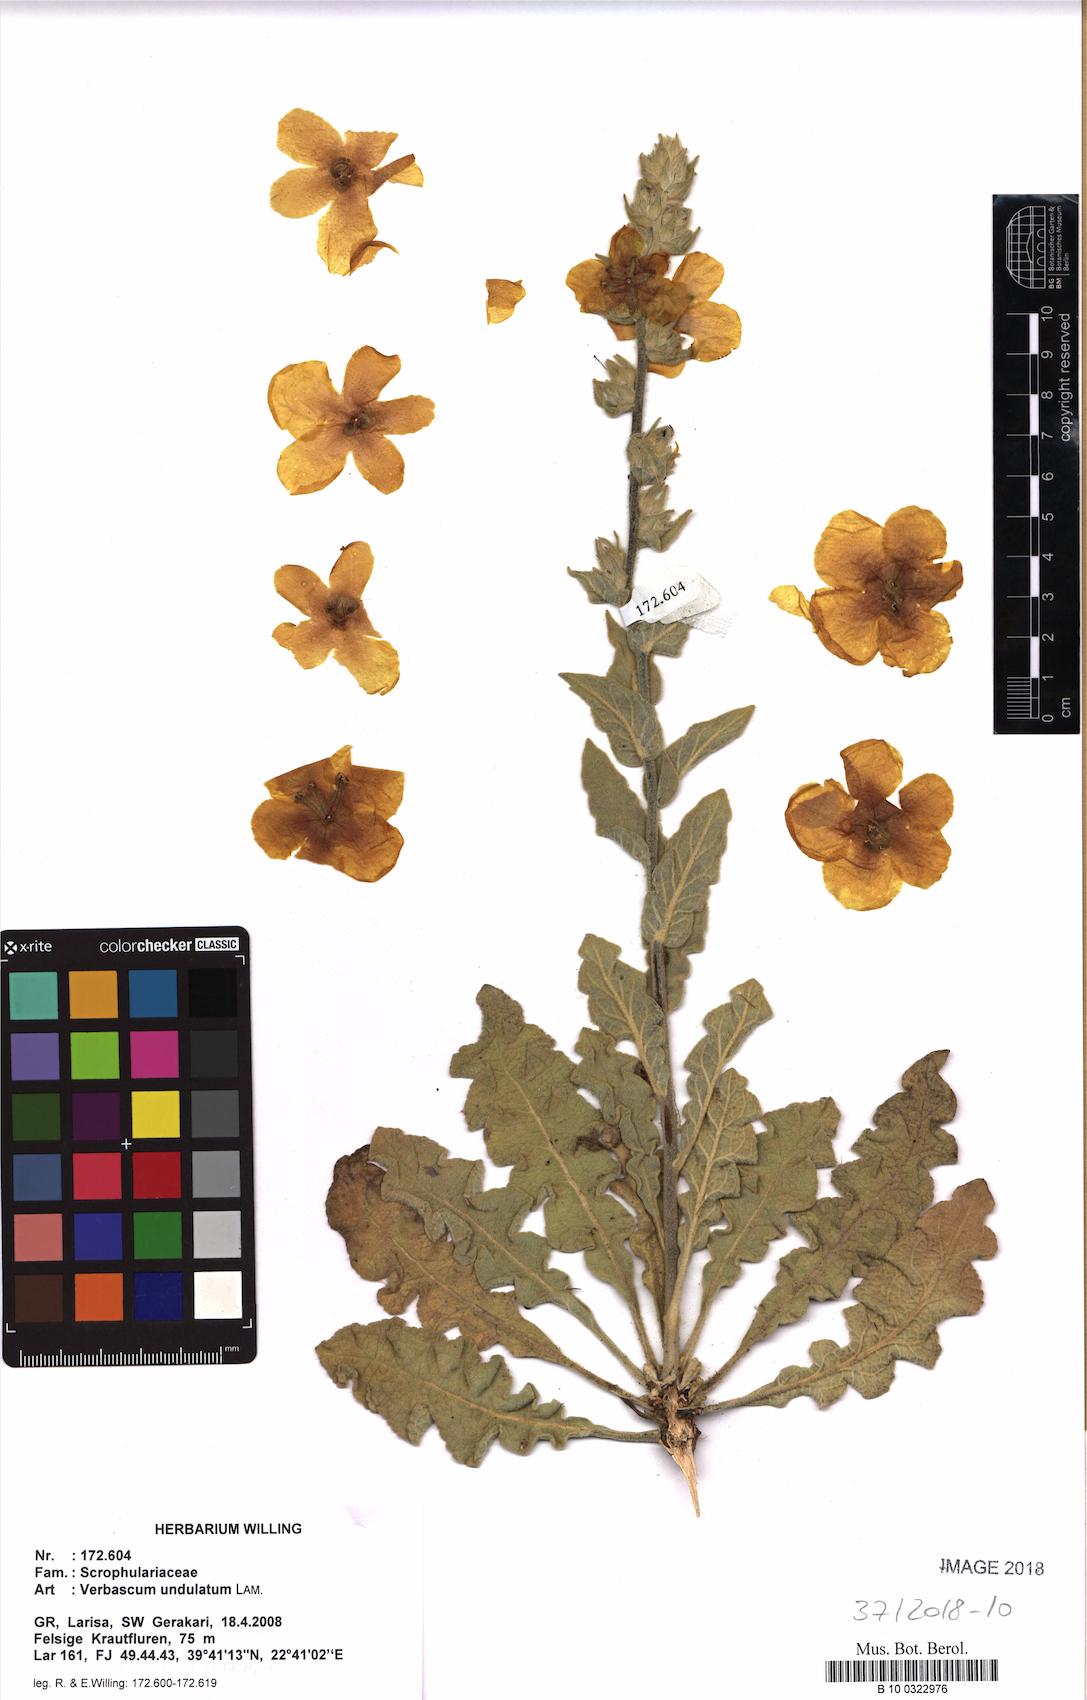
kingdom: Plantae
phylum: Tracheophyta
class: Magnoliopsida
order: Lamiales
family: Scrophulariaceae
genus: Verbascum
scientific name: Verbascum undulatum
